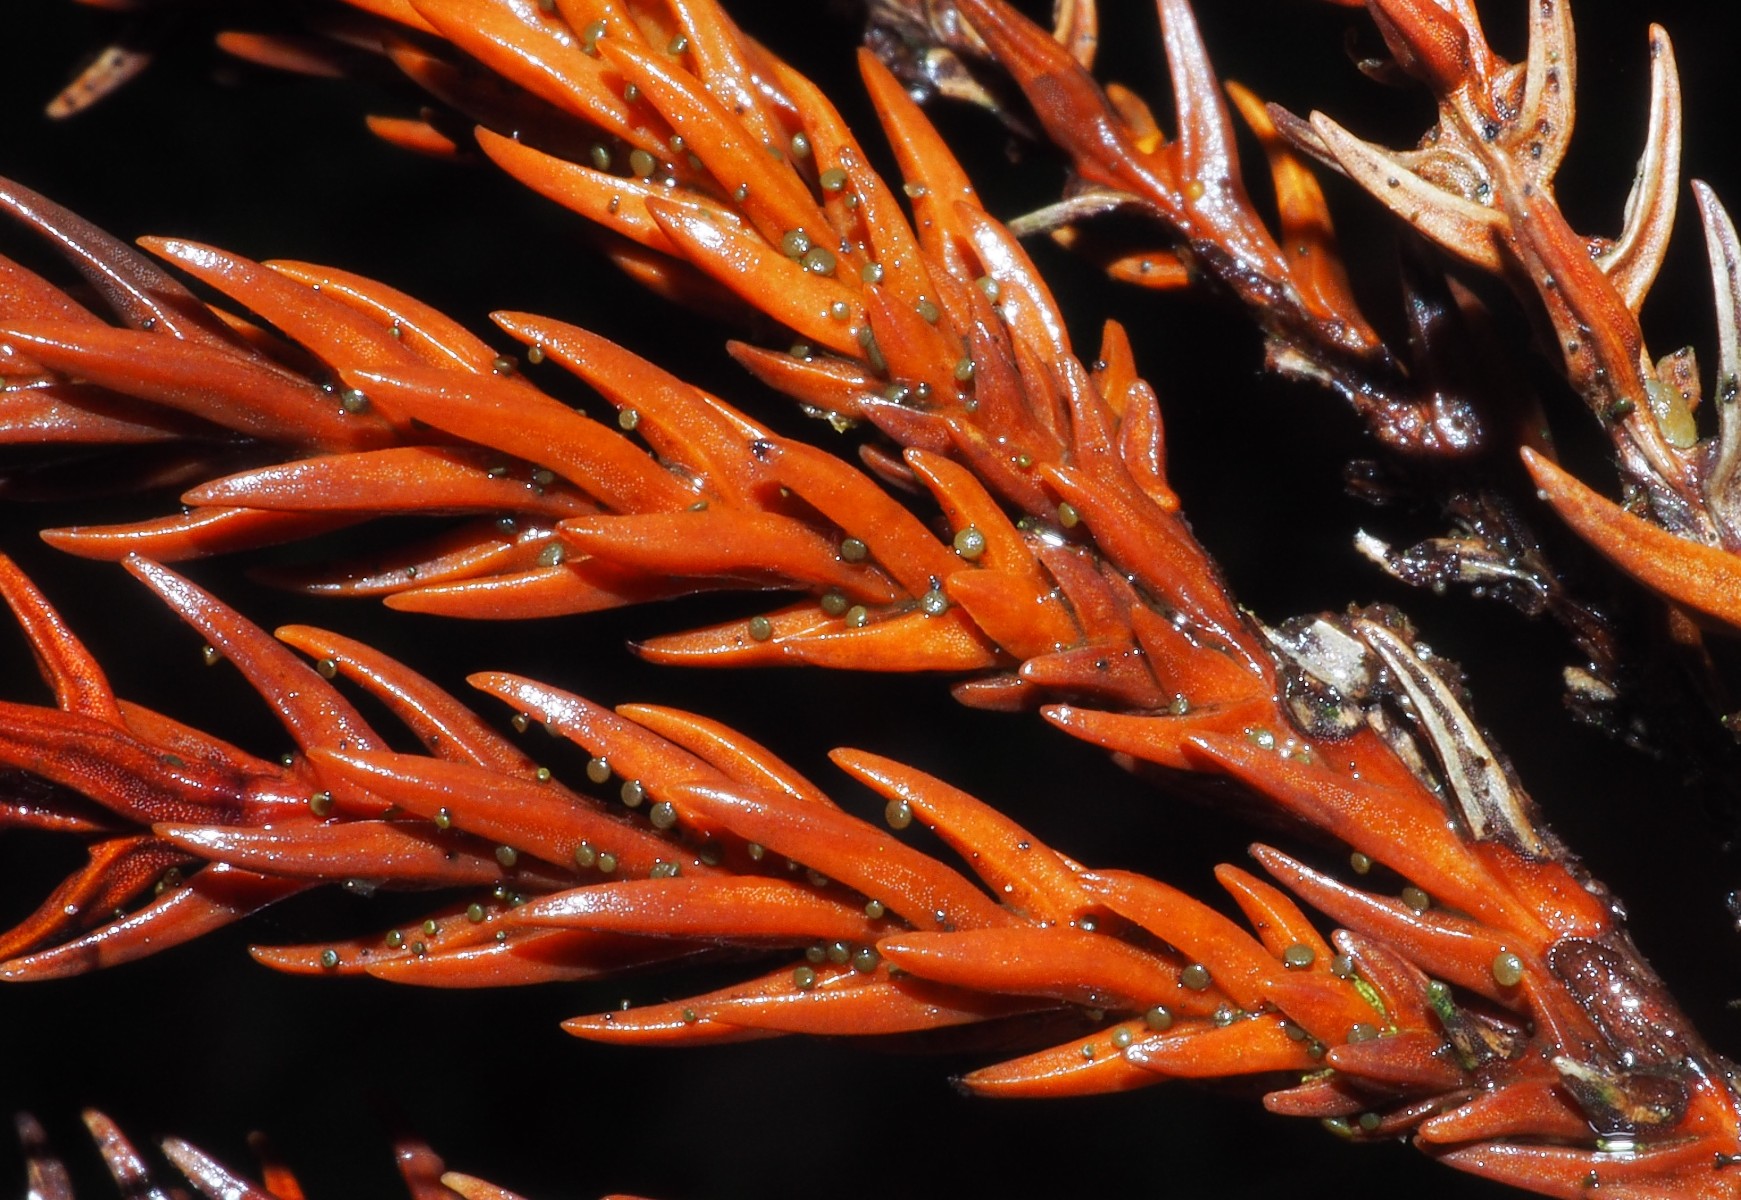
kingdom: Fungi
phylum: Ascomycota
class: Leotiomycetes
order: Helotiales
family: Gelatinodiscaceae
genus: Chloroscypha
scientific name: Chloroscypha seaveri
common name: kortstilket cypresskive
